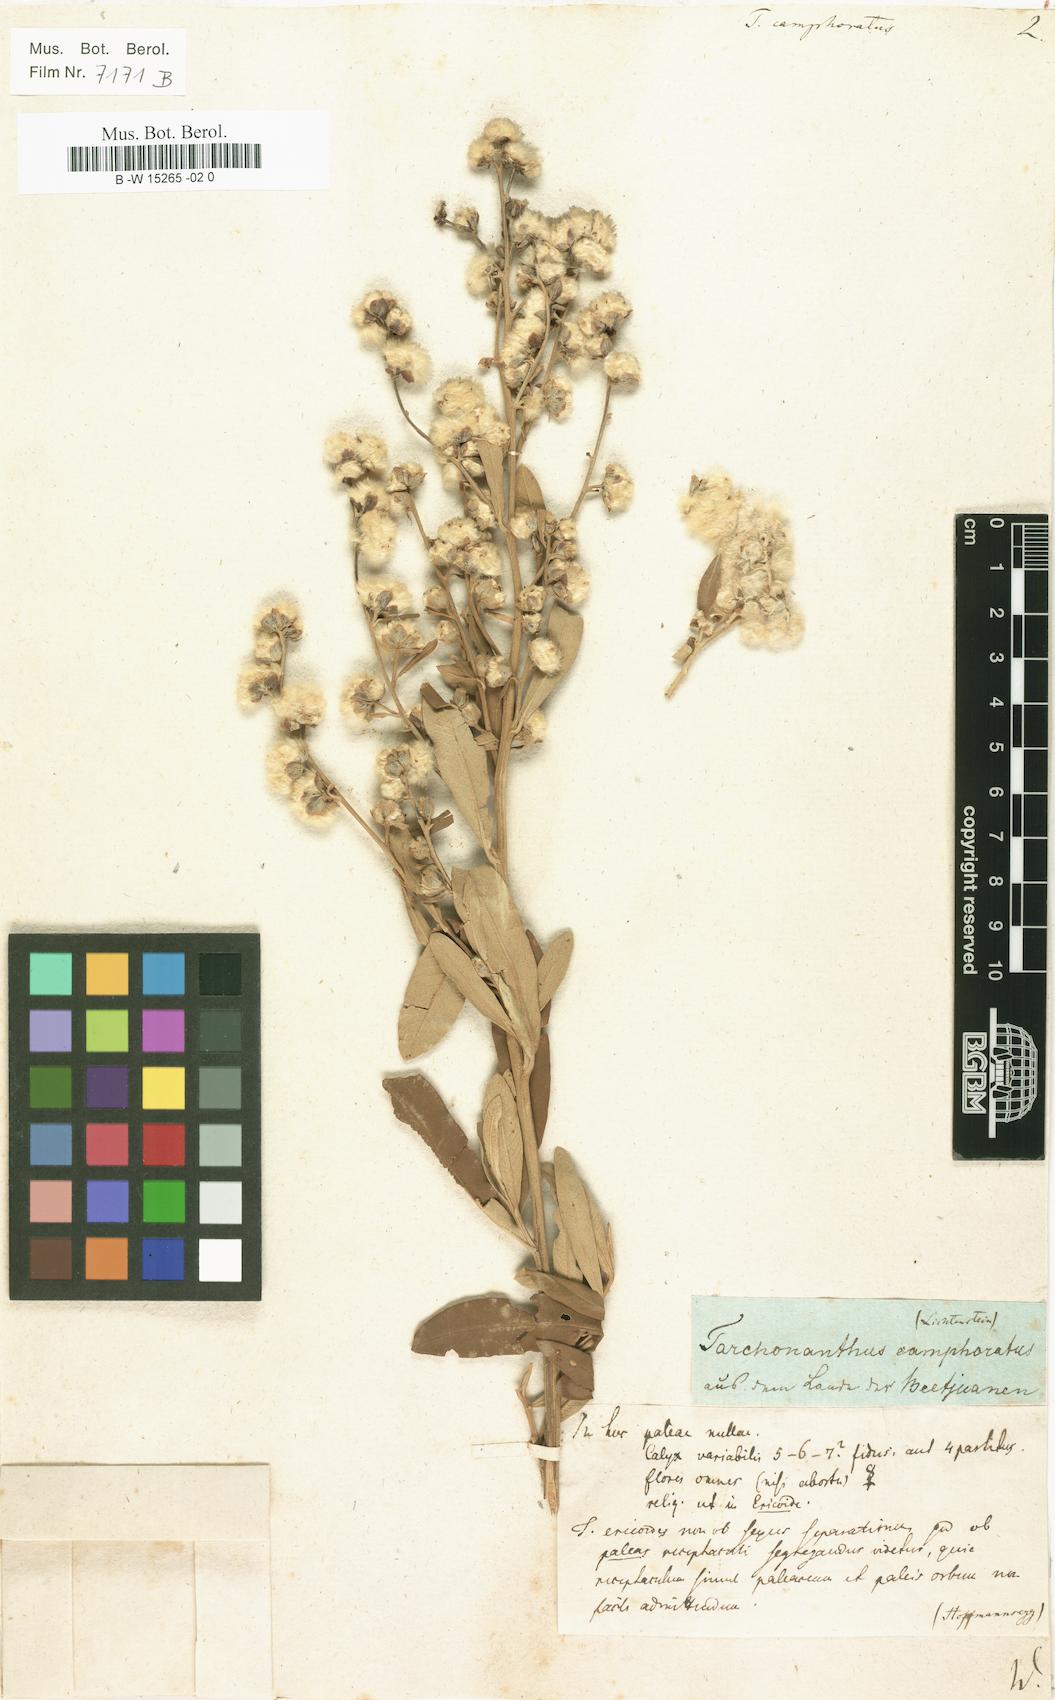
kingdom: Plantae
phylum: Tracheophyta
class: Magnoliopsida
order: Asterales
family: Asteraceae
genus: Tarchonanthus
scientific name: Tarchonanthus camphoratus
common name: Camphorwood
